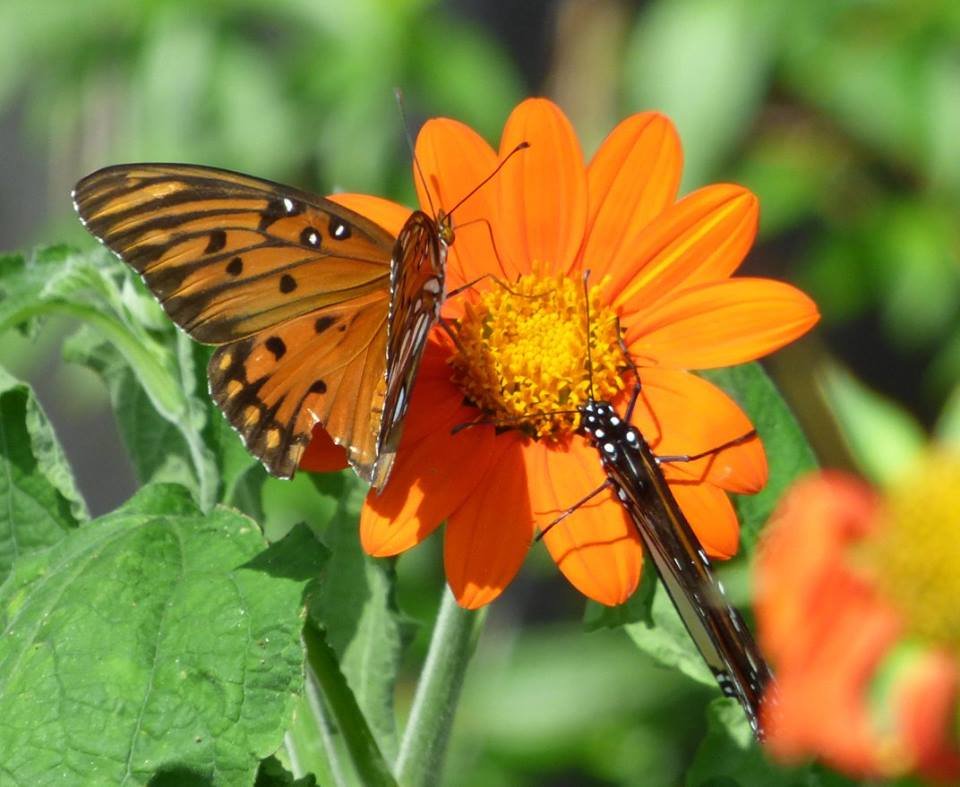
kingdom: Animalia
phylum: Arthropoda
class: Insecta
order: Lepidoptera
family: Nymphalidae
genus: Dione
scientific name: Dione vanillae
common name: Gulf Fritillary
